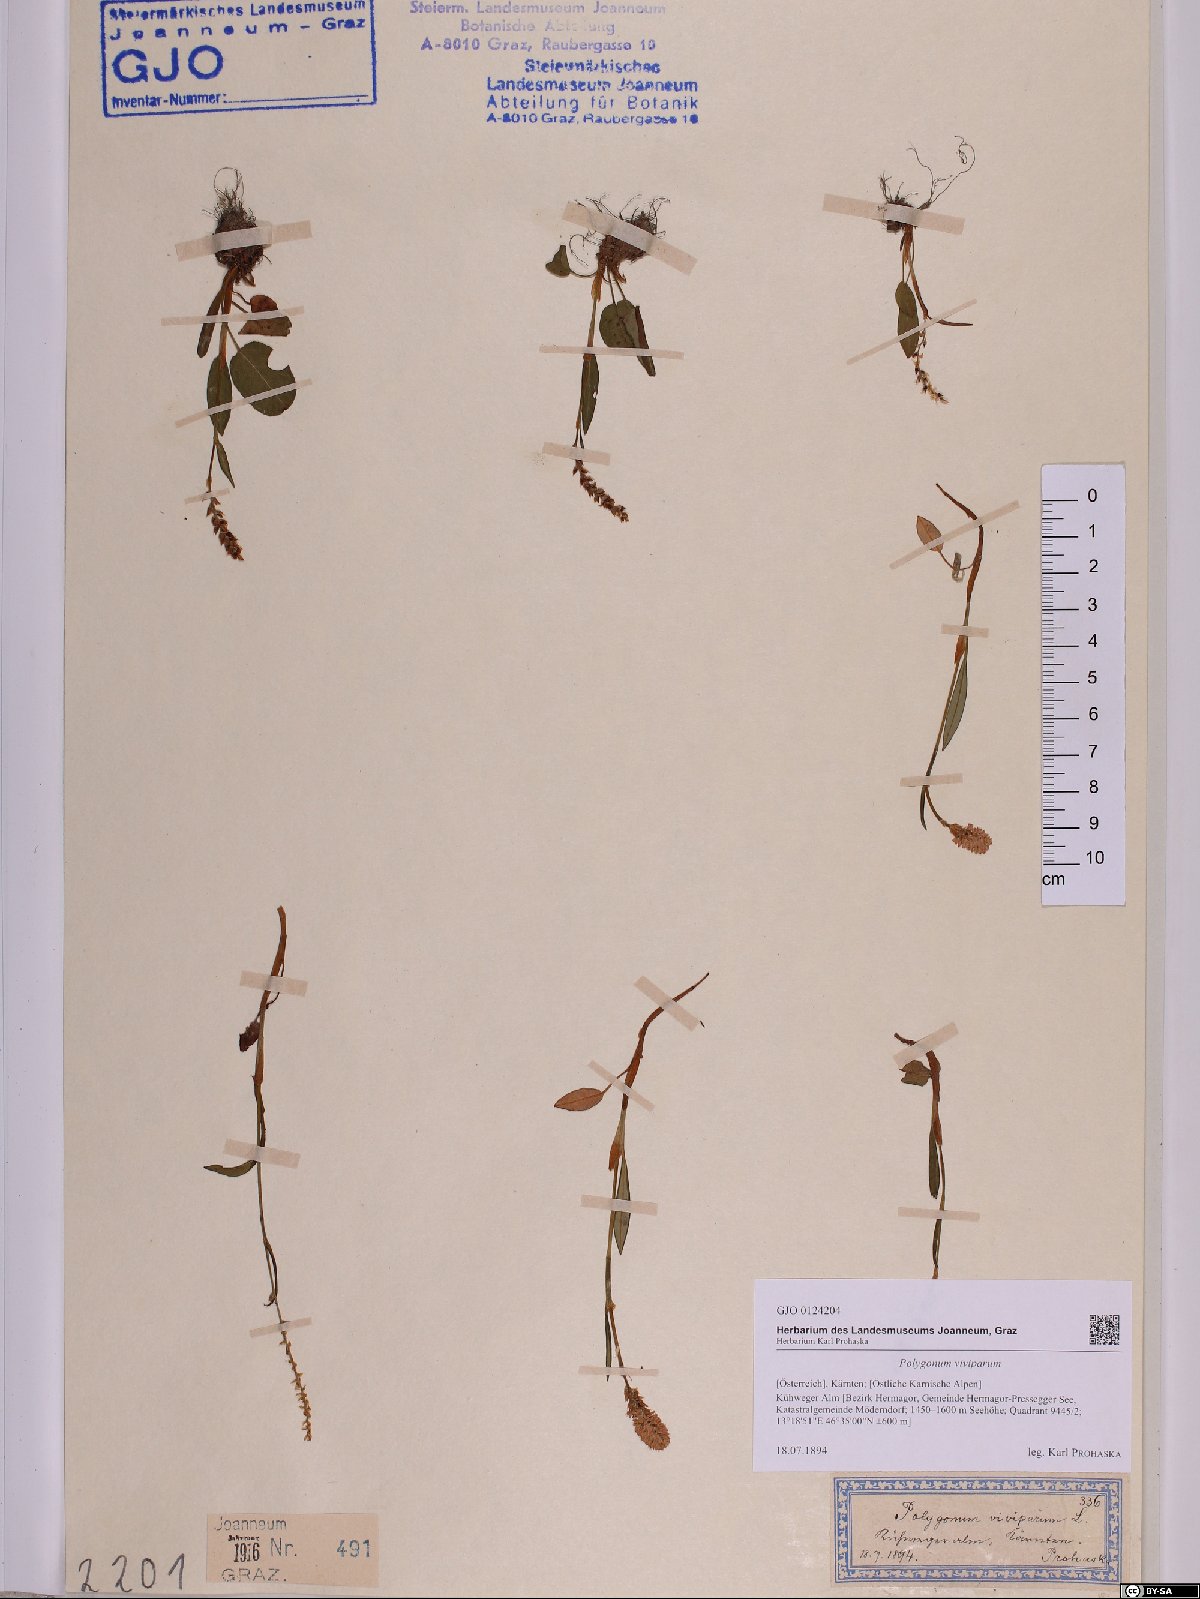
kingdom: Plantae
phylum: Tracheophyta
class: Magnoliopsida
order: Caryophyllales
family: Polygonaceae
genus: Bistorta
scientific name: Bistorta vivipara
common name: Alpine bistort
